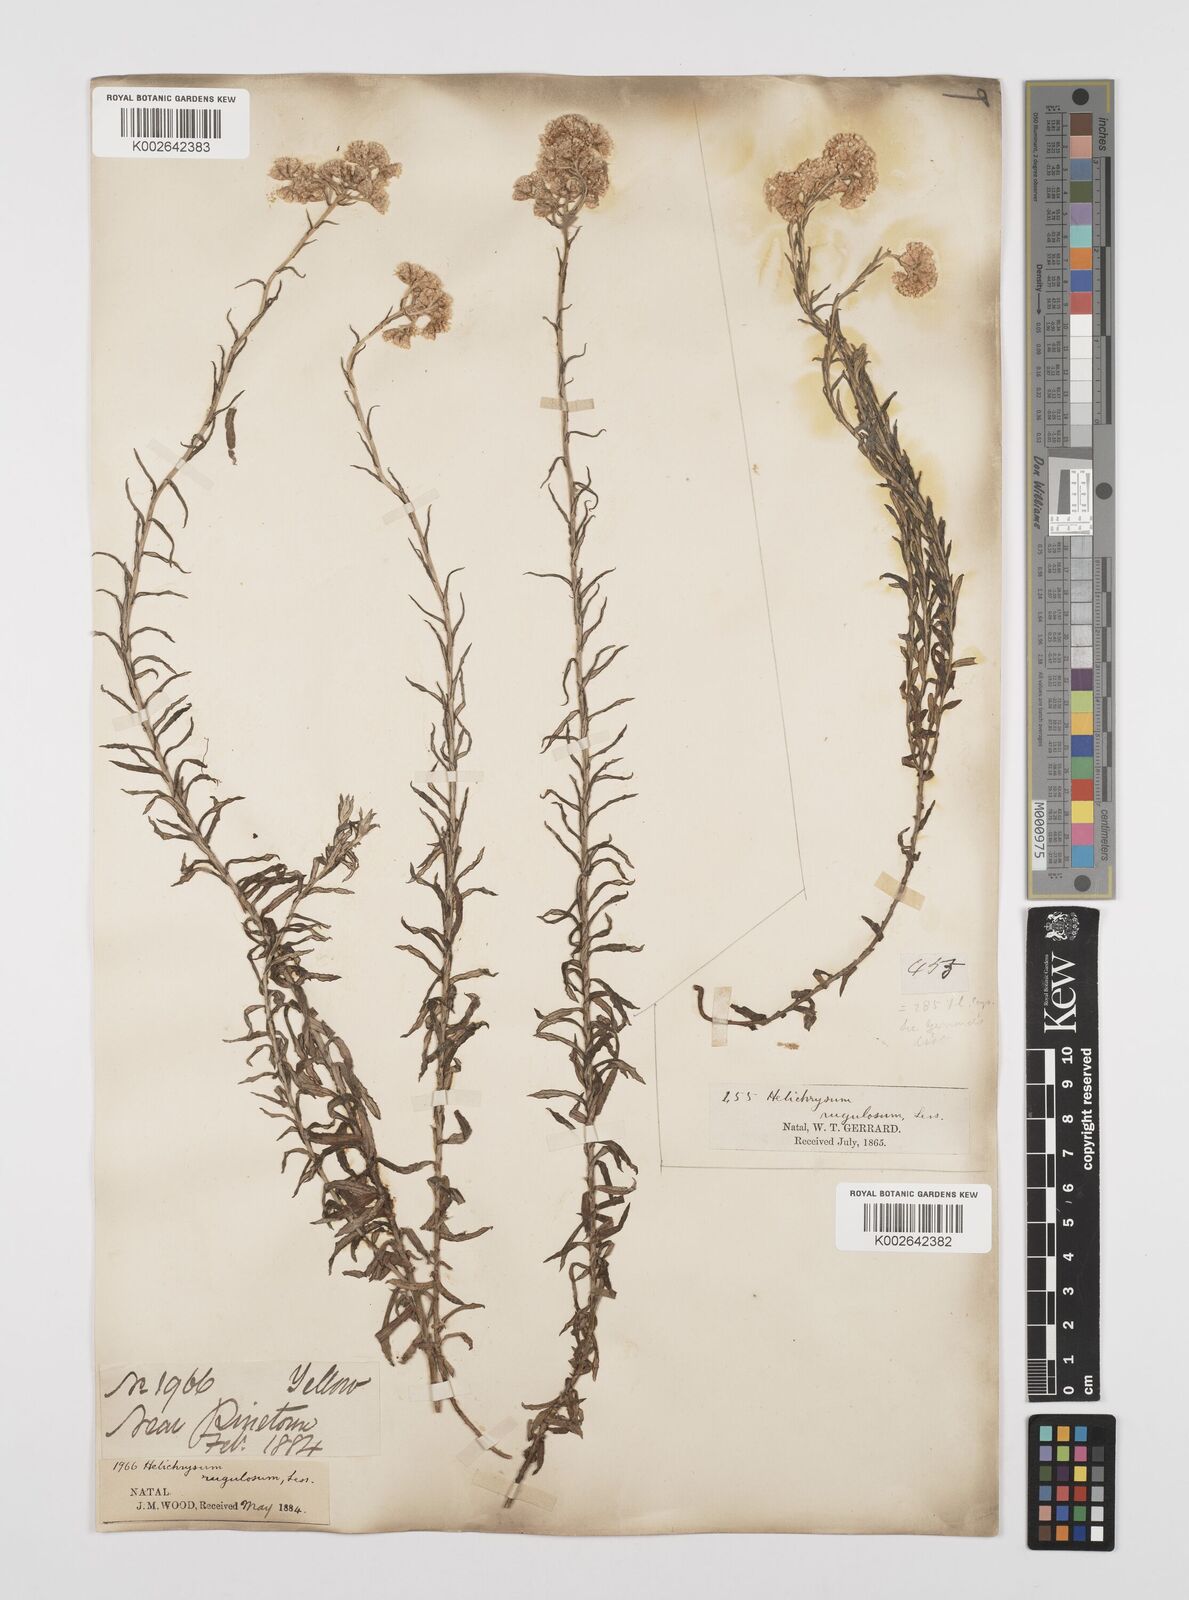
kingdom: Plantae
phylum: Tracheophyta
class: Magnoliopsida
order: Asterales
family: Asteraceae
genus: Helichrysum
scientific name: Helichrysum rugulosum
